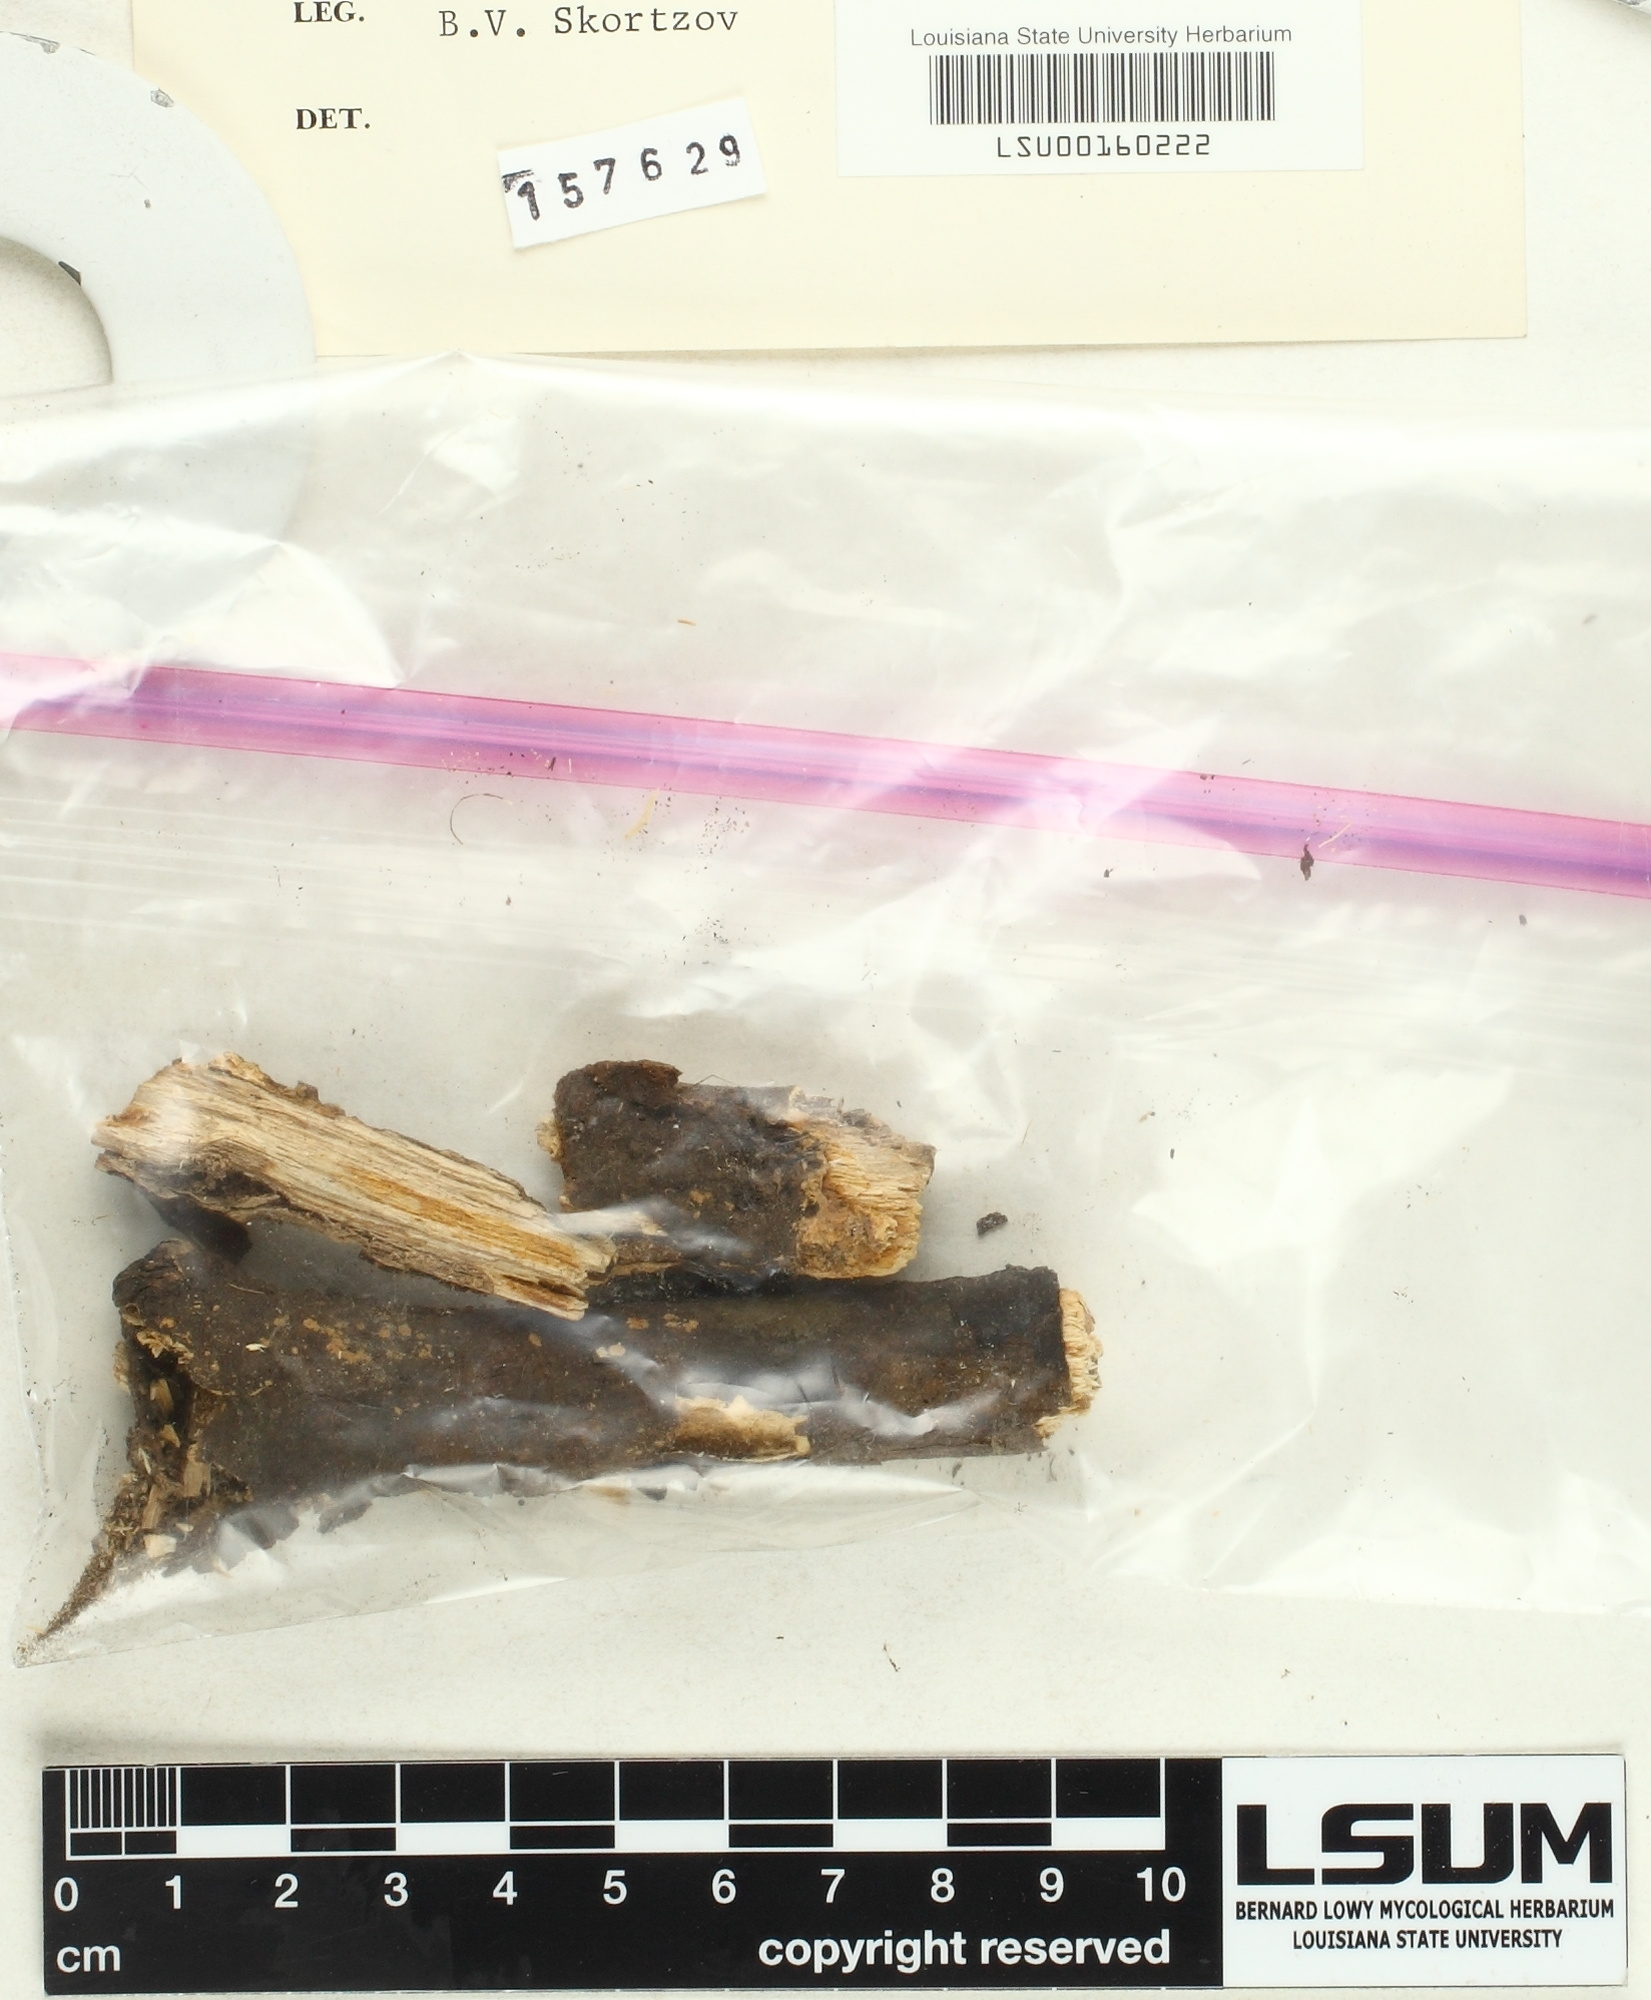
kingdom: Fungi
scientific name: Fungi
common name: Fungi
